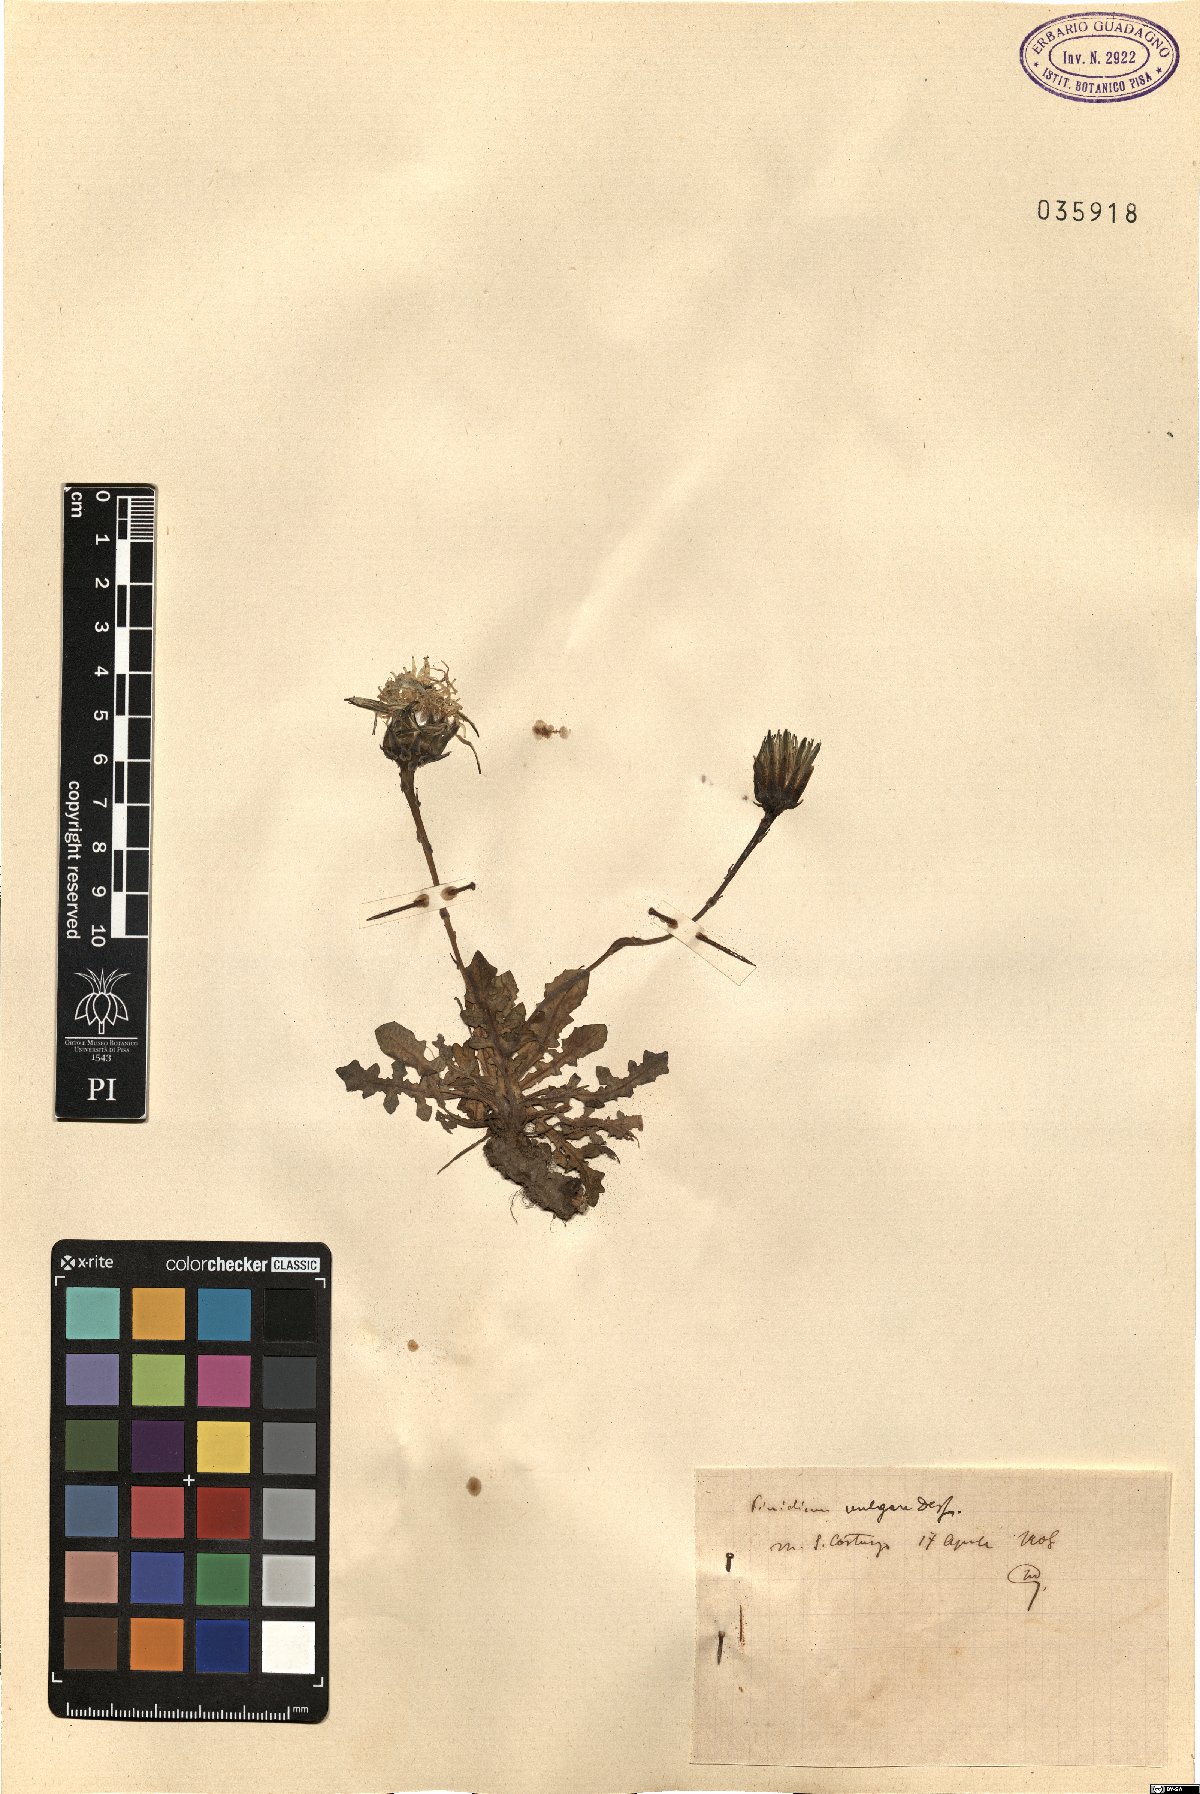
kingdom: Plantae
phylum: Tracheophyta
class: Magnoliopsida
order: Asterales
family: Asteraceae
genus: Reichardia
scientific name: Reichardia picroides
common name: Common brighteyes
